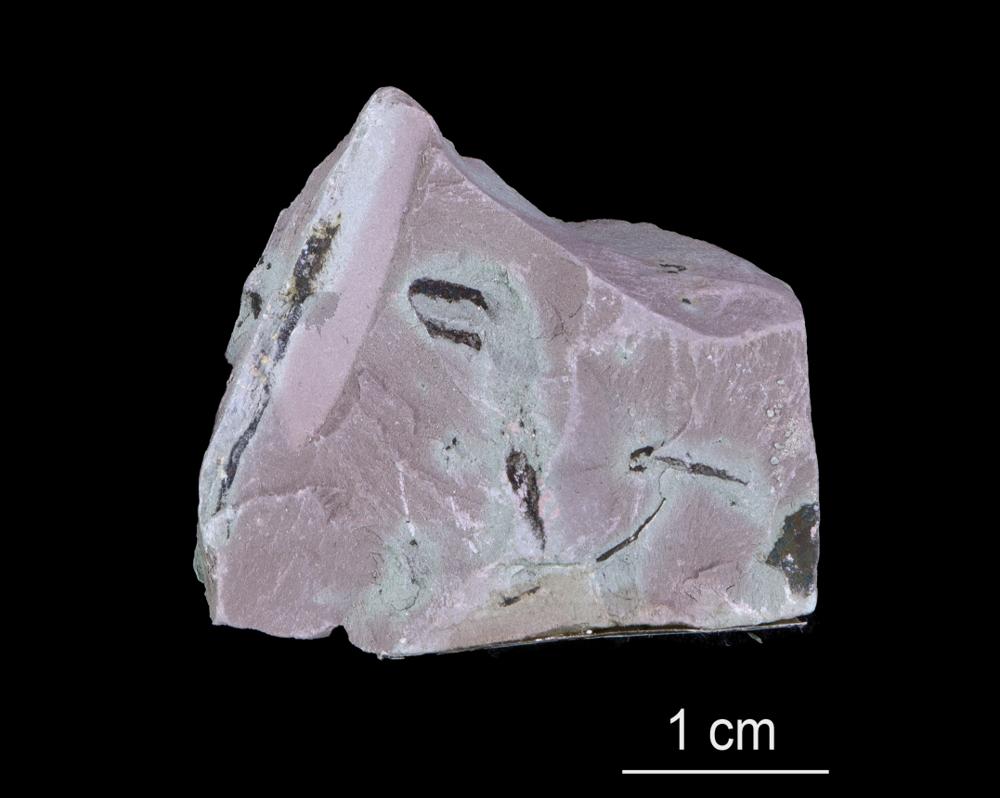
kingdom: Chromista
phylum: Foraminifera
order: Astrorhizida
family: Hyperamminidae
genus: Platysolenites
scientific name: Platysolenites
